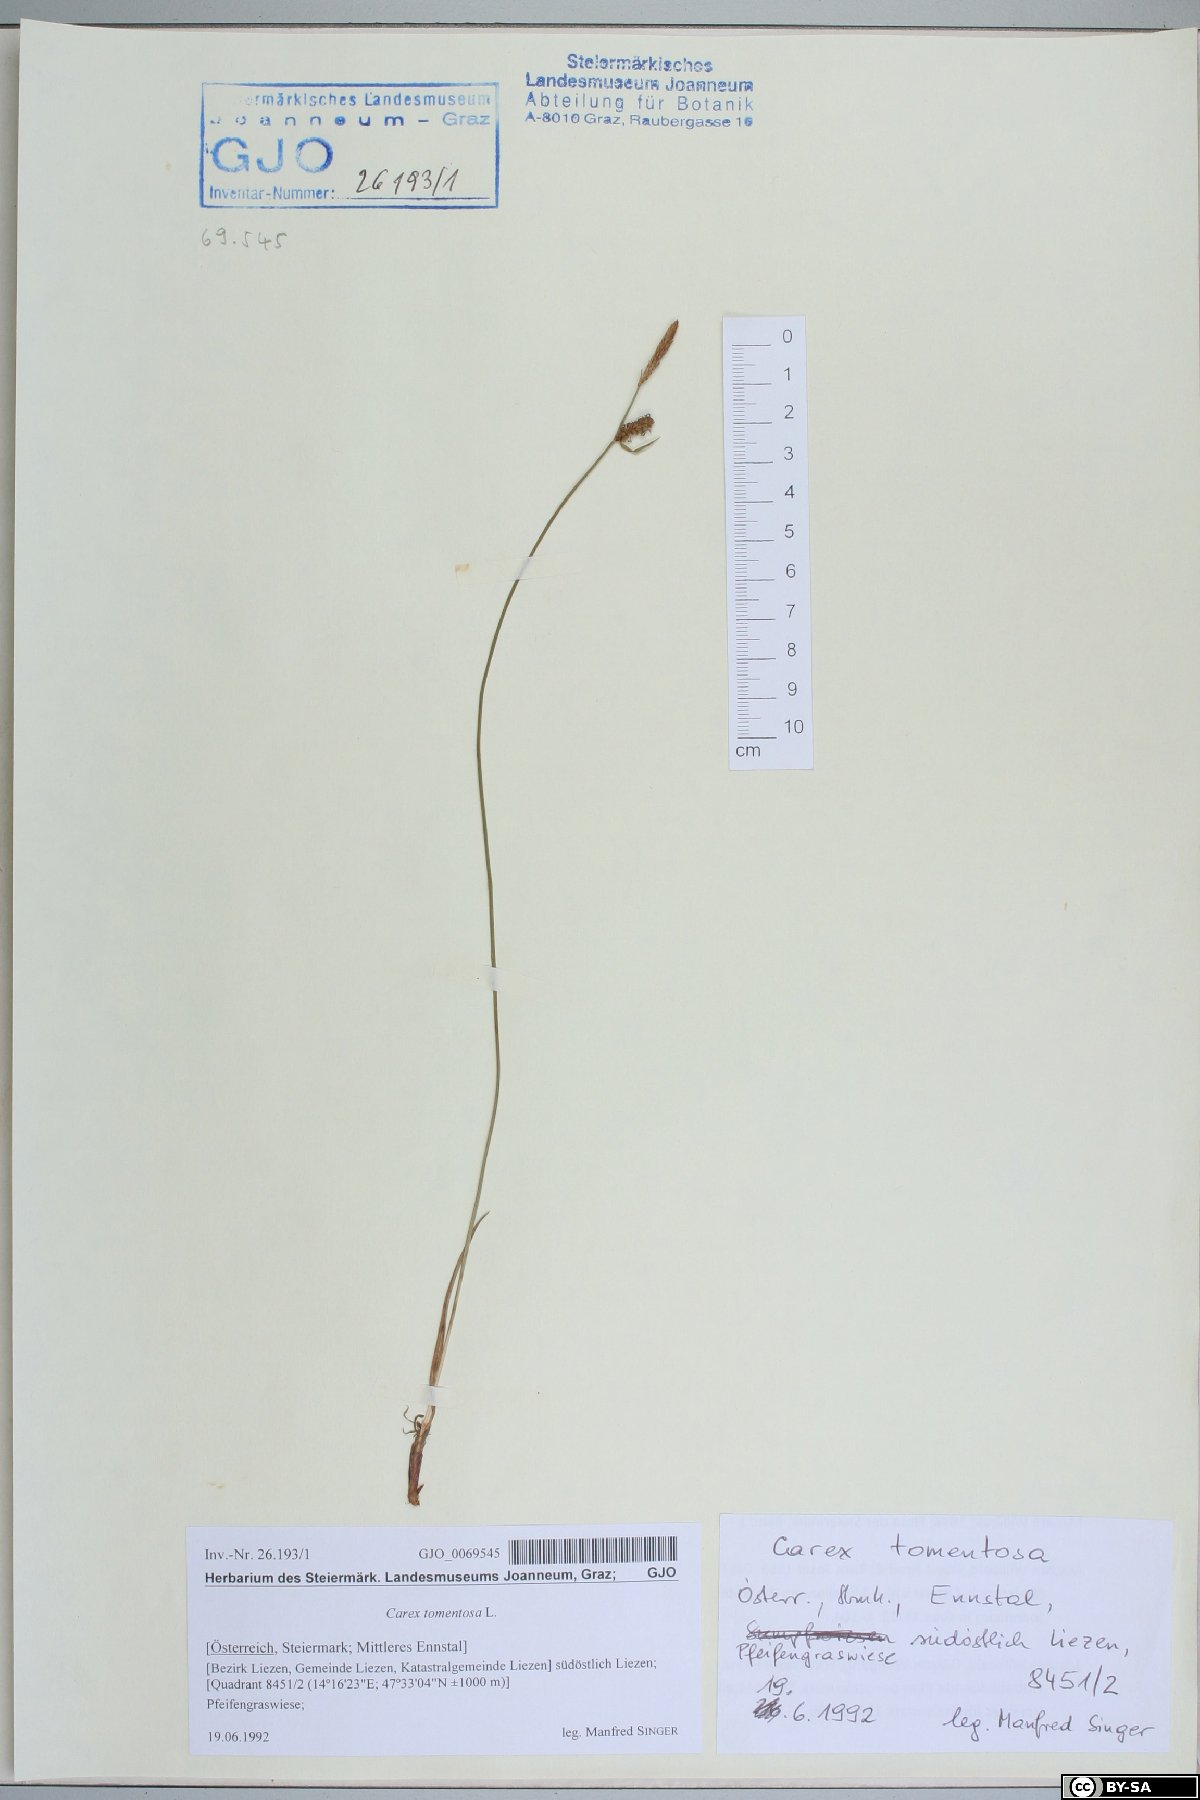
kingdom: Plantae
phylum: Tracheophyta
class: Liliopsida
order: Poales
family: Cyperaceae
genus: Carex
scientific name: Carex tomentosa
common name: Downy-fruited sedge
